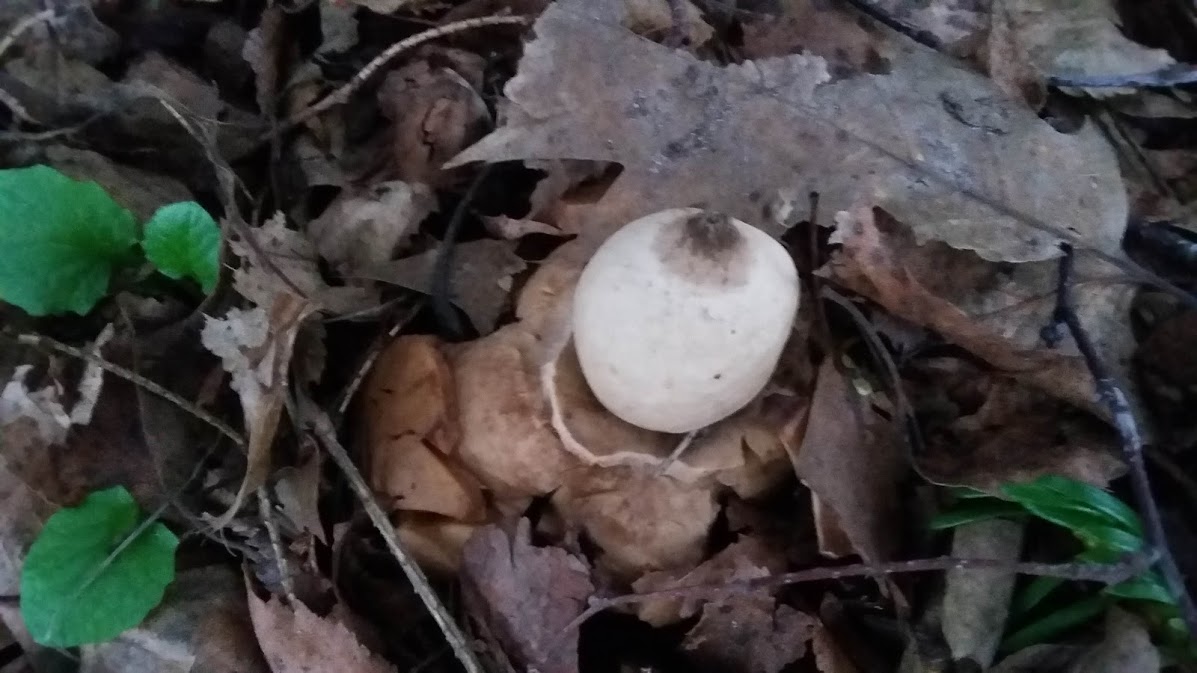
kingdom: Fungi
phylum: Basidiomycota
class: Agaricomycetes
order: Geastrales
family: Geastraceae
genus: Geastrum
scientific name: Geastrum michelianum
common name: kødet stjernebold
